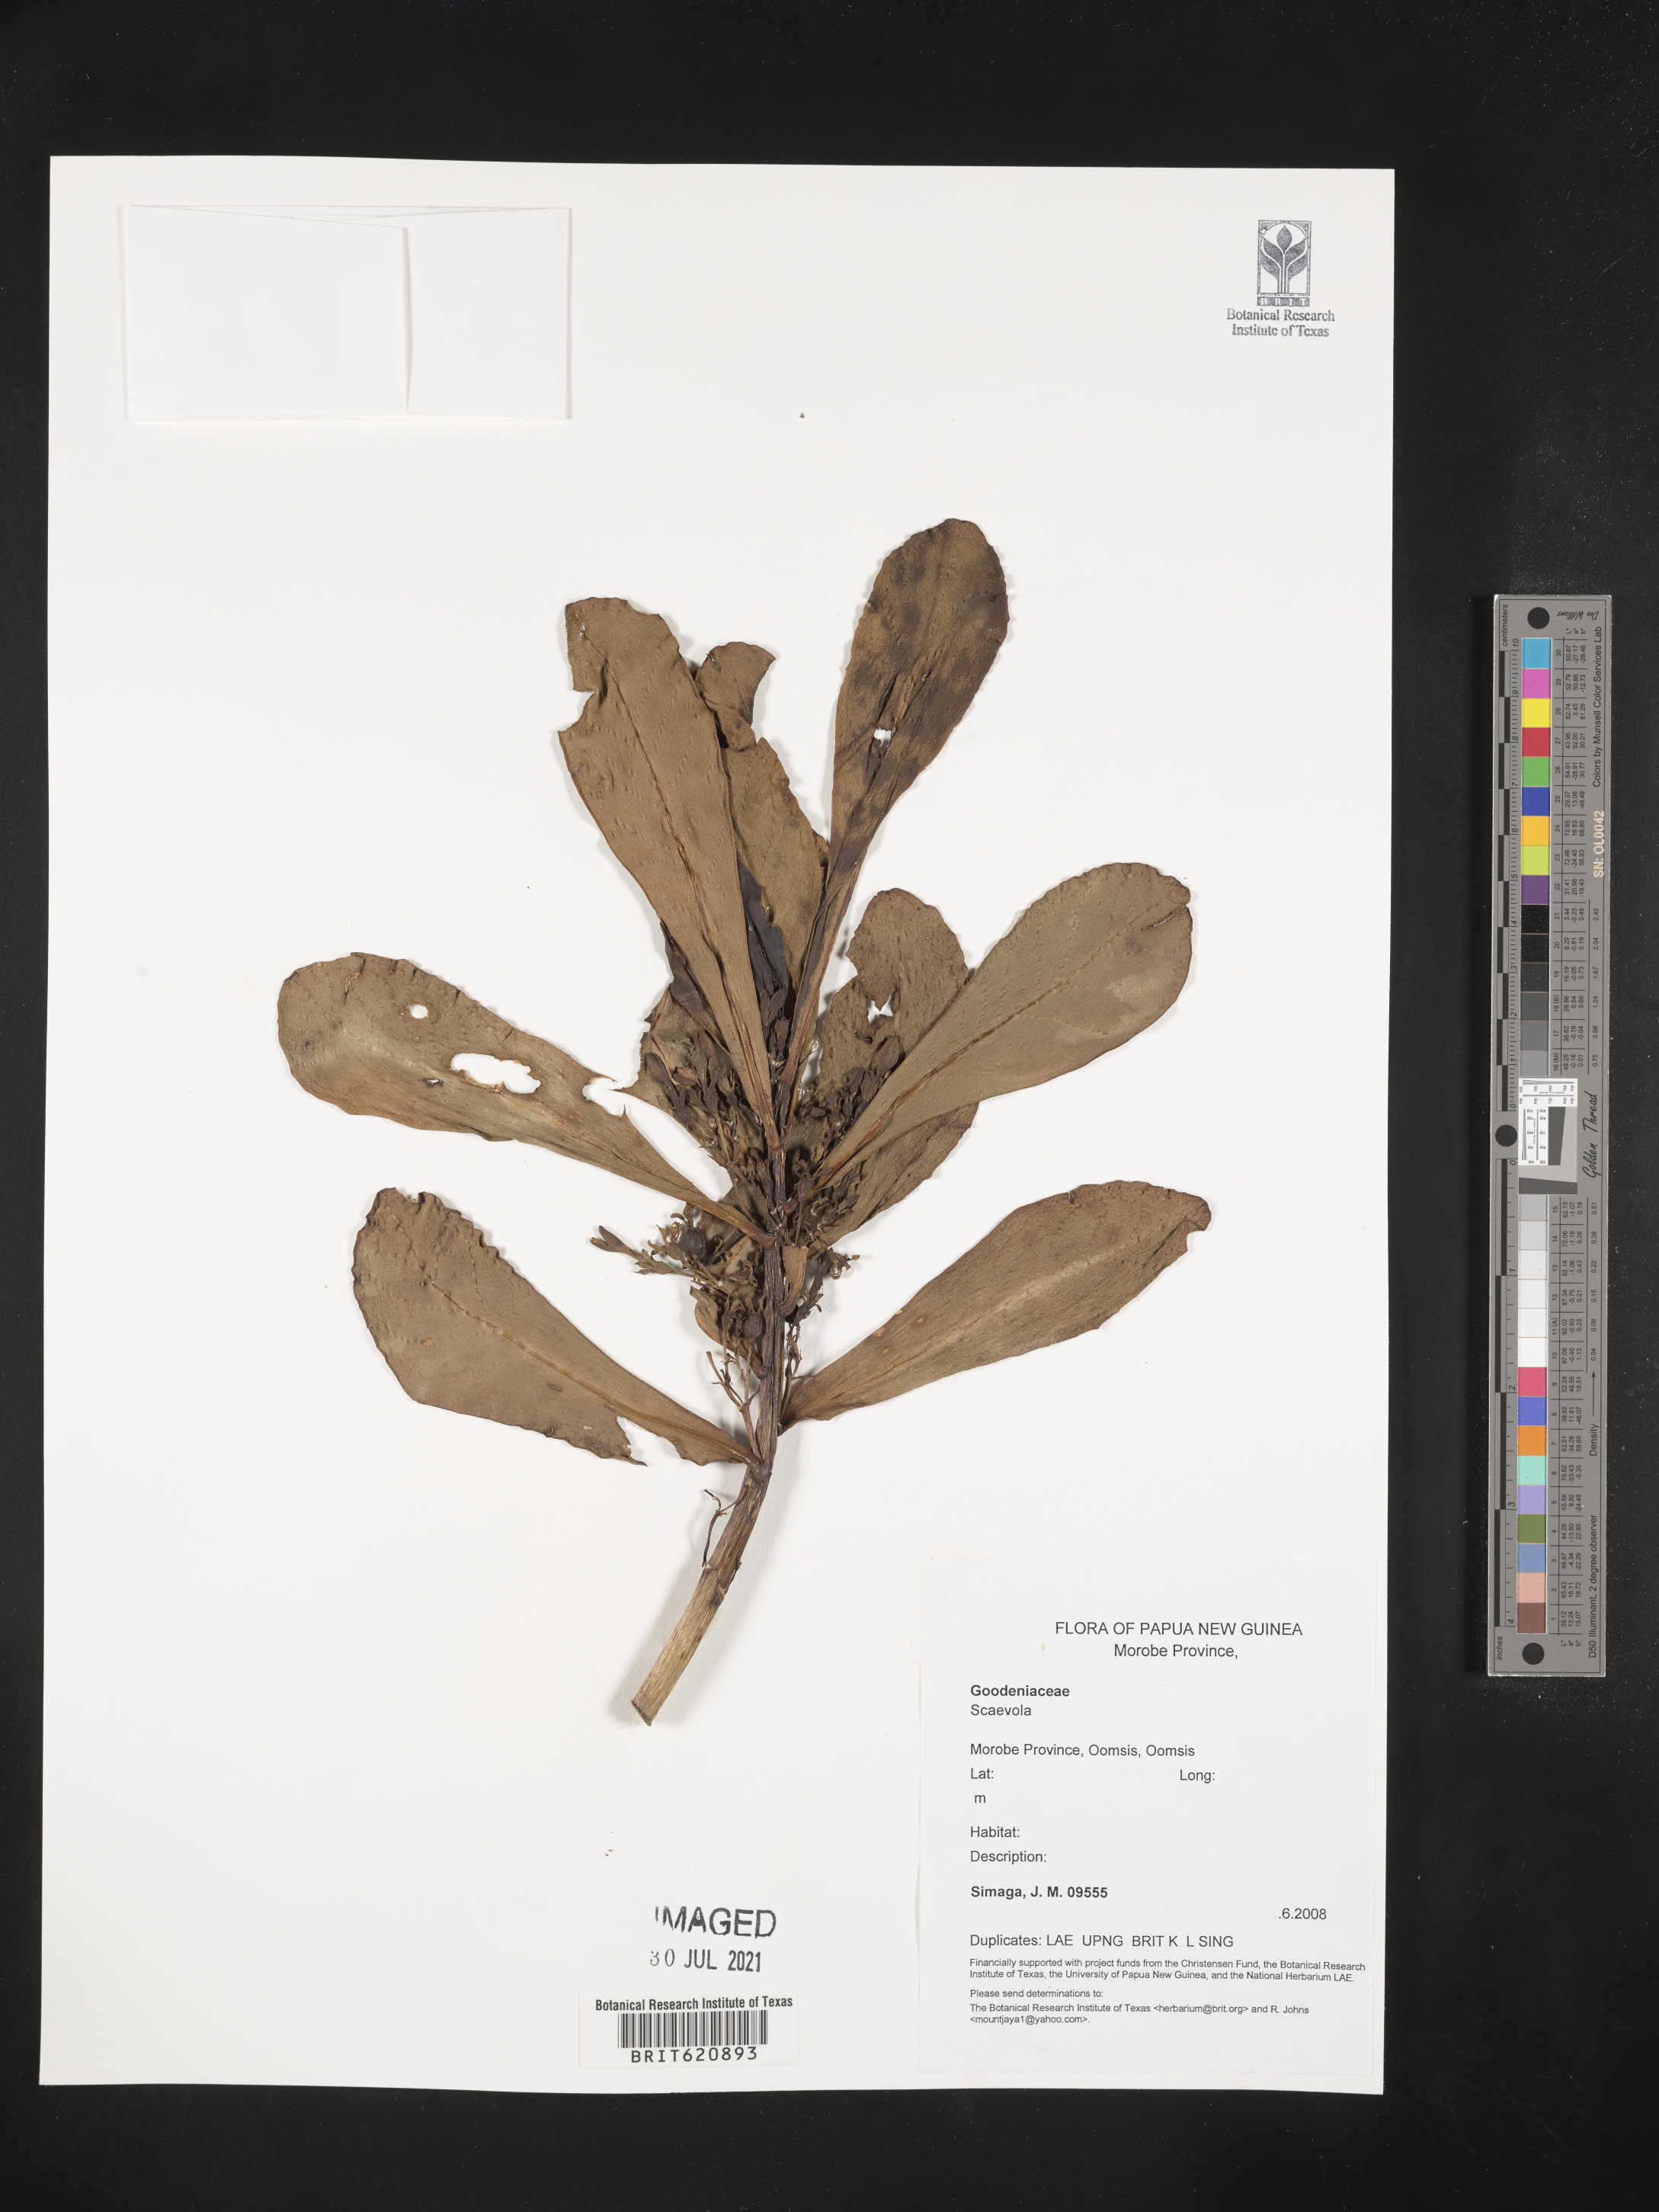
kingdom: Plantae
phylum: Tracheophyta
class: Magnoliopsida
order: Asterales
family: Goodeniaceae
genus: Scaevola
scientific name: Scaevola
